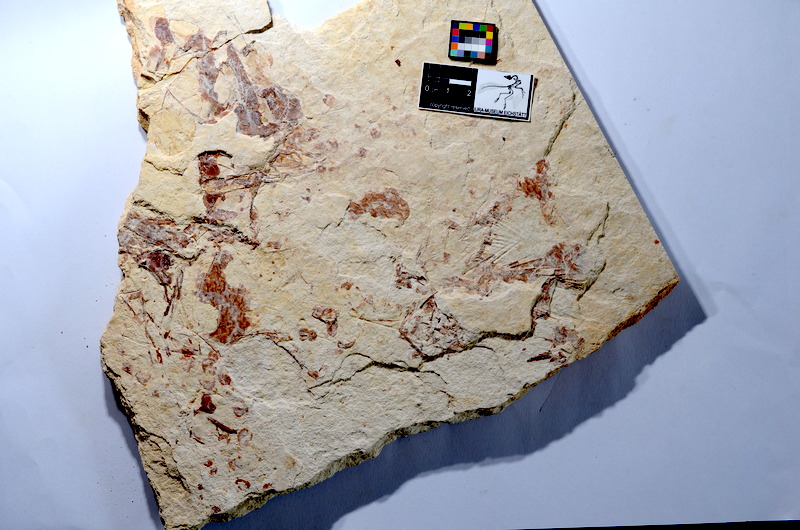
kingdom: Animalia
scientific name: Animalia
